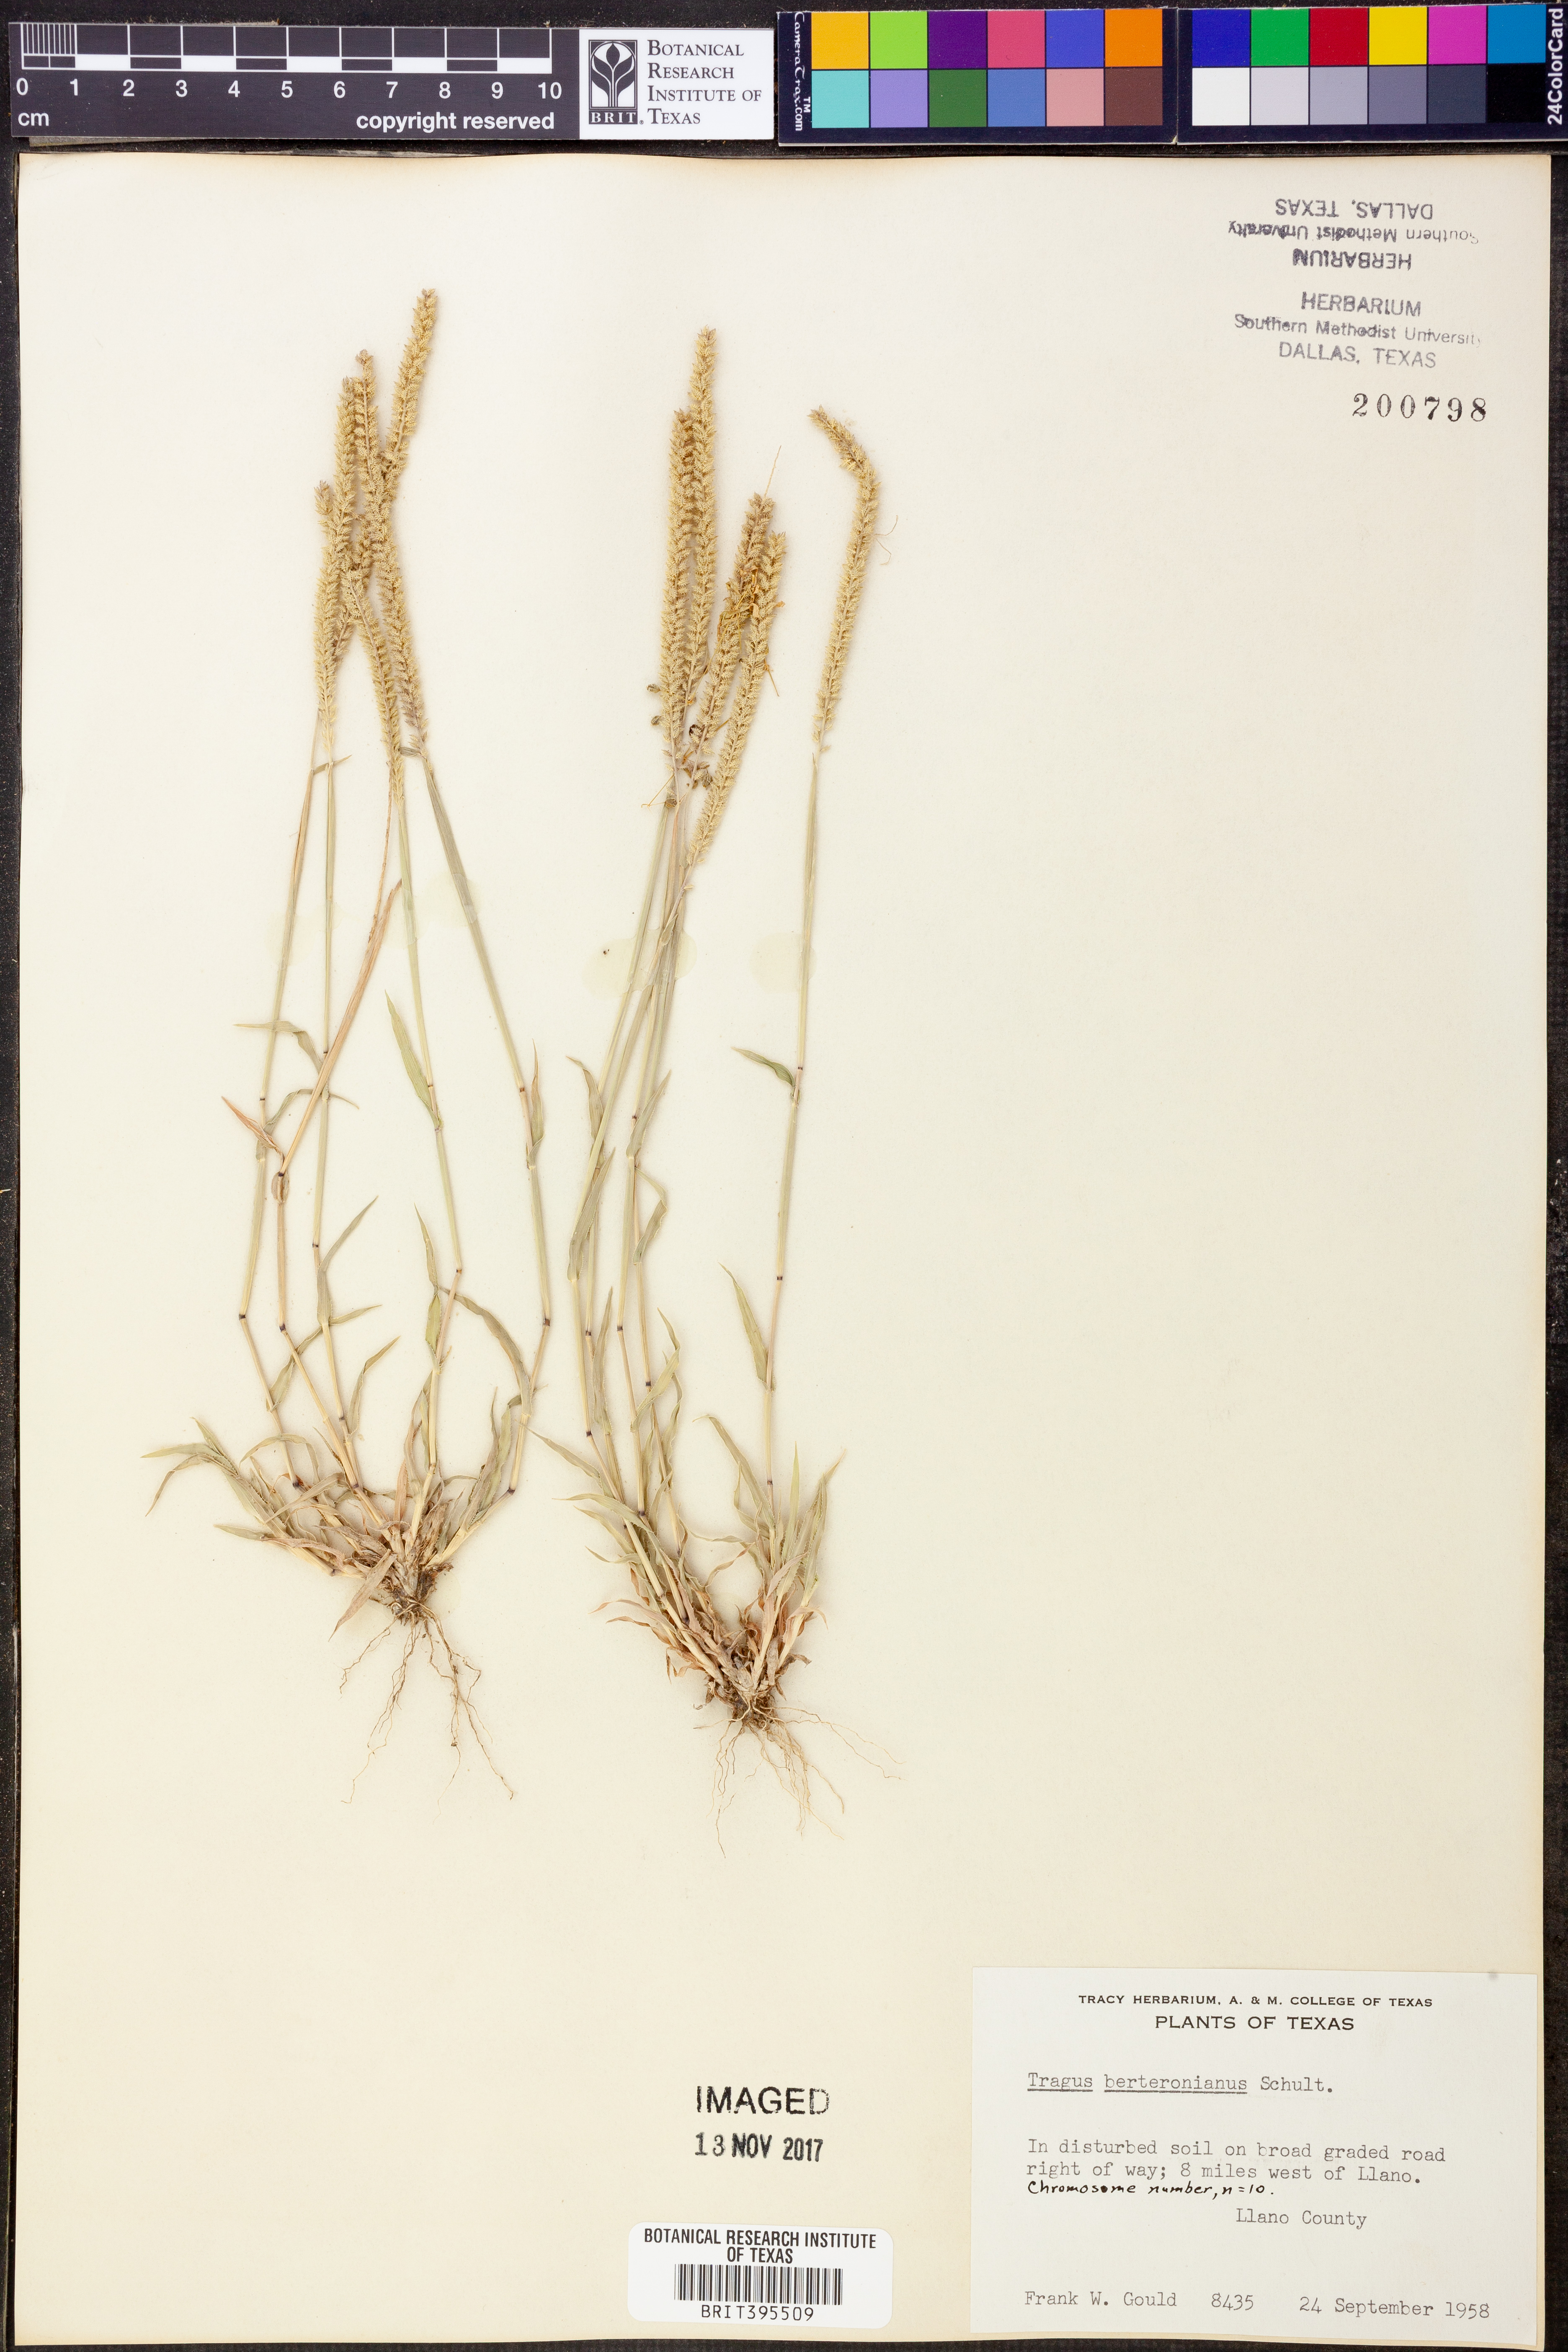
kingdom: Plantae
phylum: Tracheophyta
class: Liliopsida
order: Poales
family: Poaceae
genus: Tragus
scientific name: Tragus berteronianus
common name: African bur-grass
